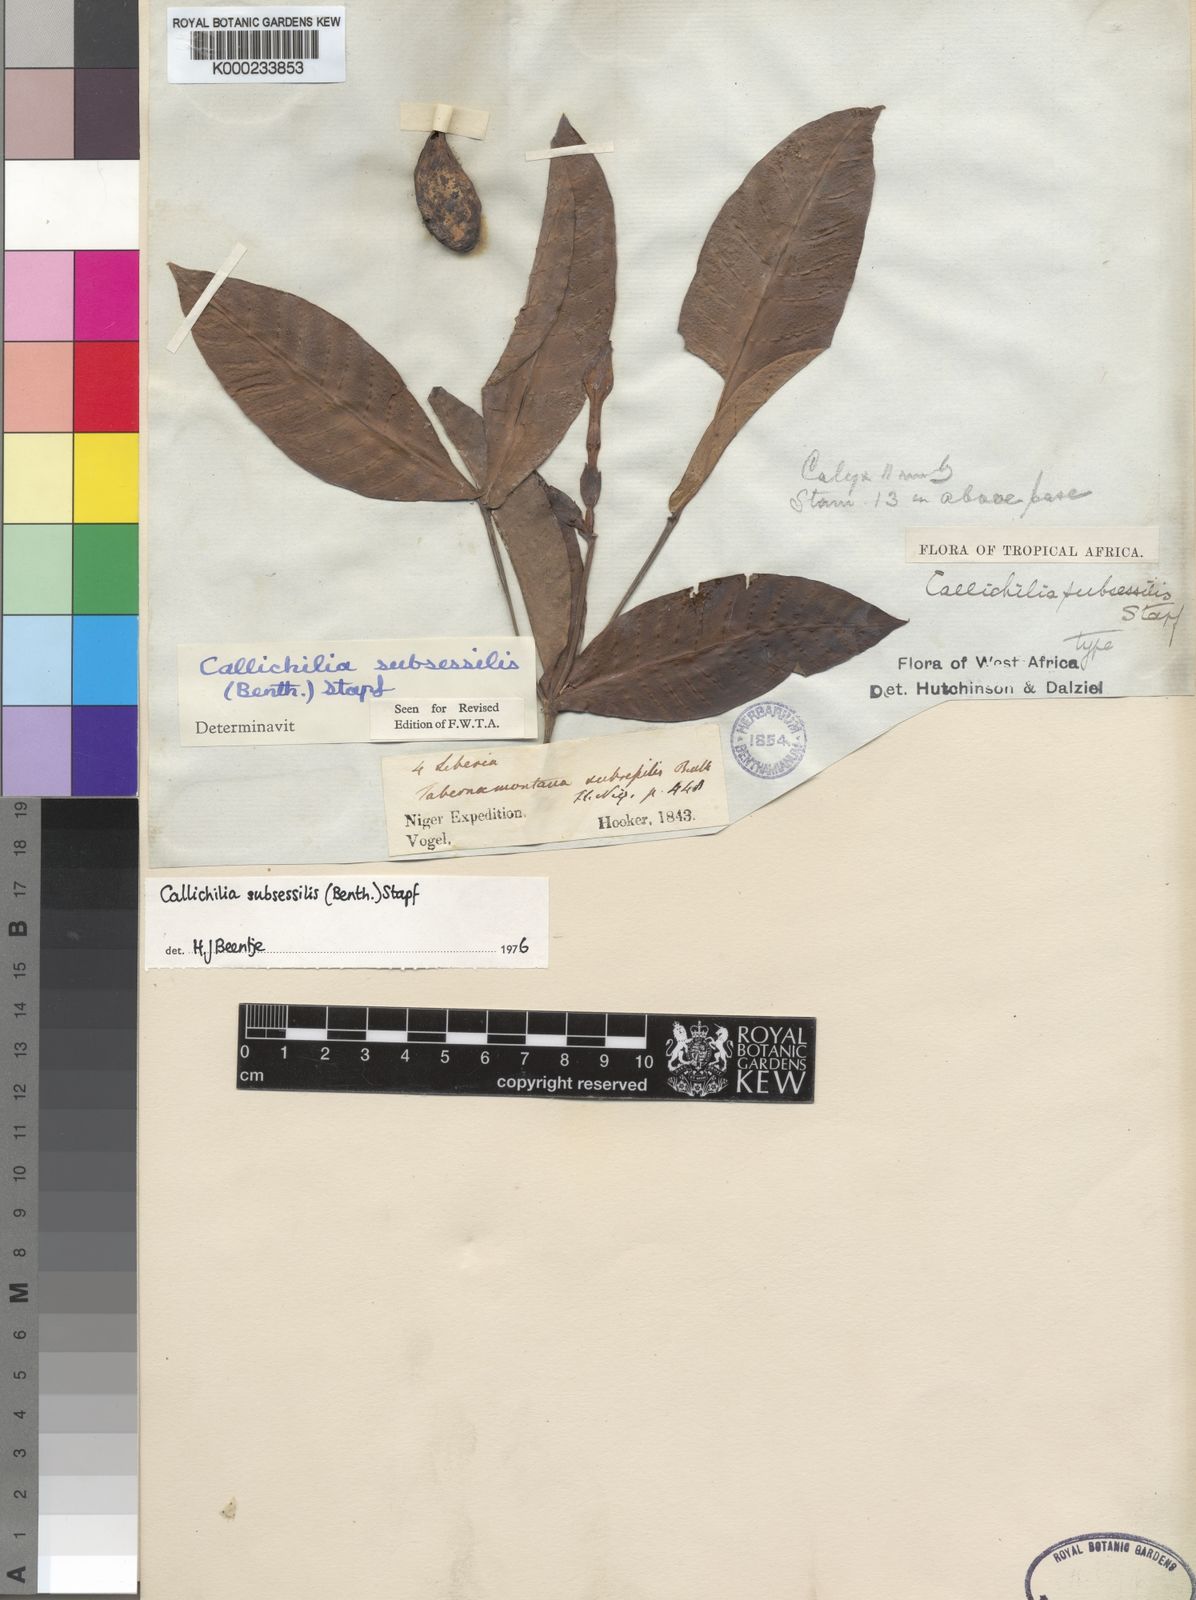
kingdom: Plantae
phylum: Tracheophyta
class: Magnoliopsida
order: Gentianales
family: Apocynaceae
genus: Callichilia
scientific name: Callichilia subsessilis
